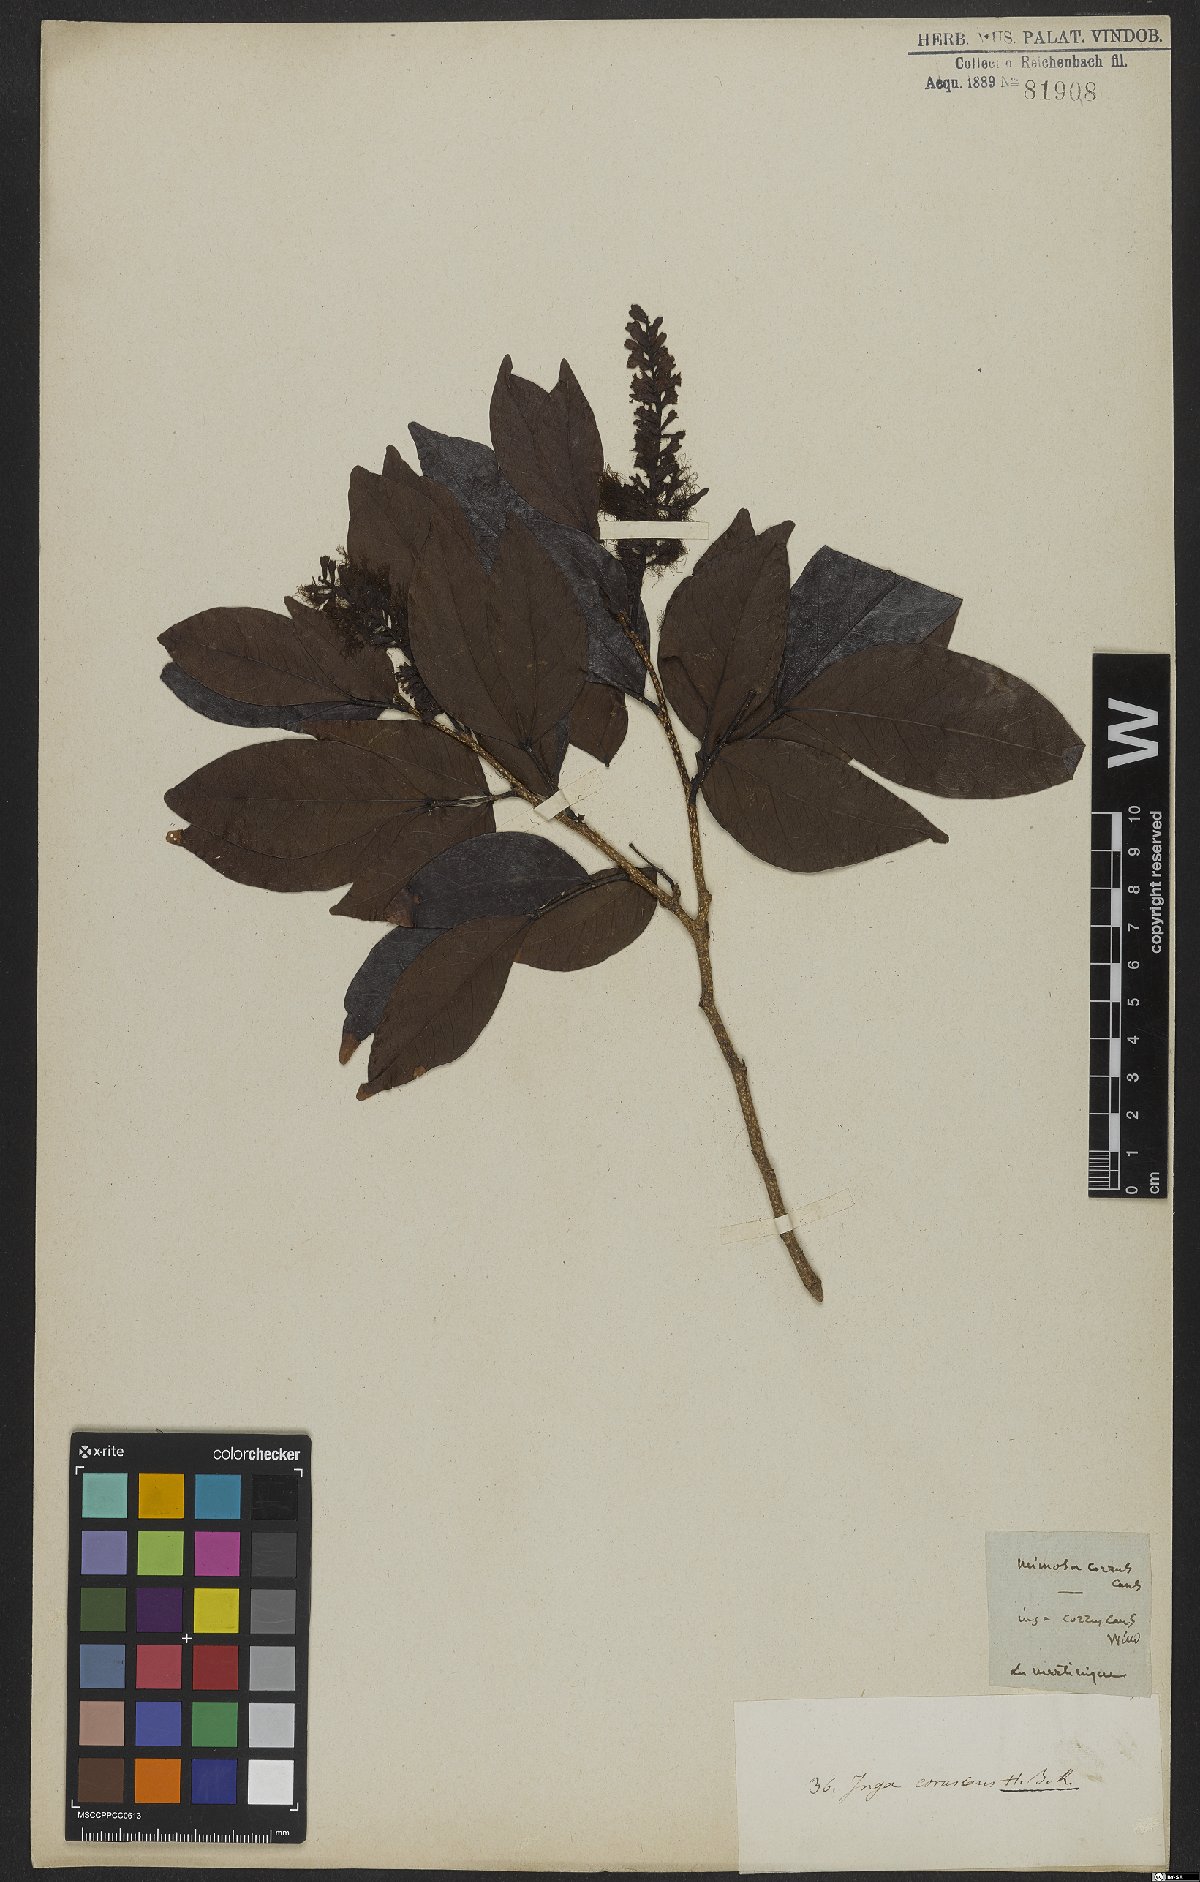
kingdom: Plantae
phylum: Tracheophyta
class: Magnoliopsida
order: Fabales
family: Fabaceae
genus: Inga
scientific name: Inga coruscans
